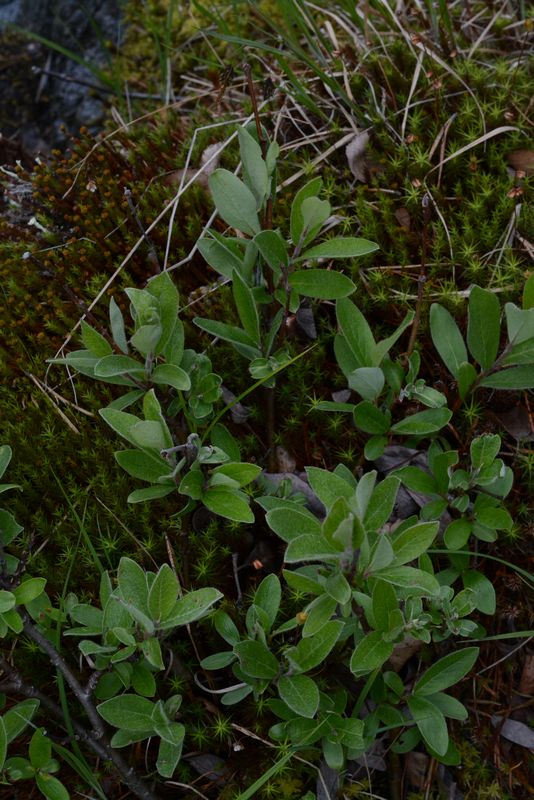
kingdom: Plantae
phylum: Tracheophyta
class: Magnoliopsida
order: Malpighiales
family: Salicaceae
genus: Salix
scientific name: Salix
